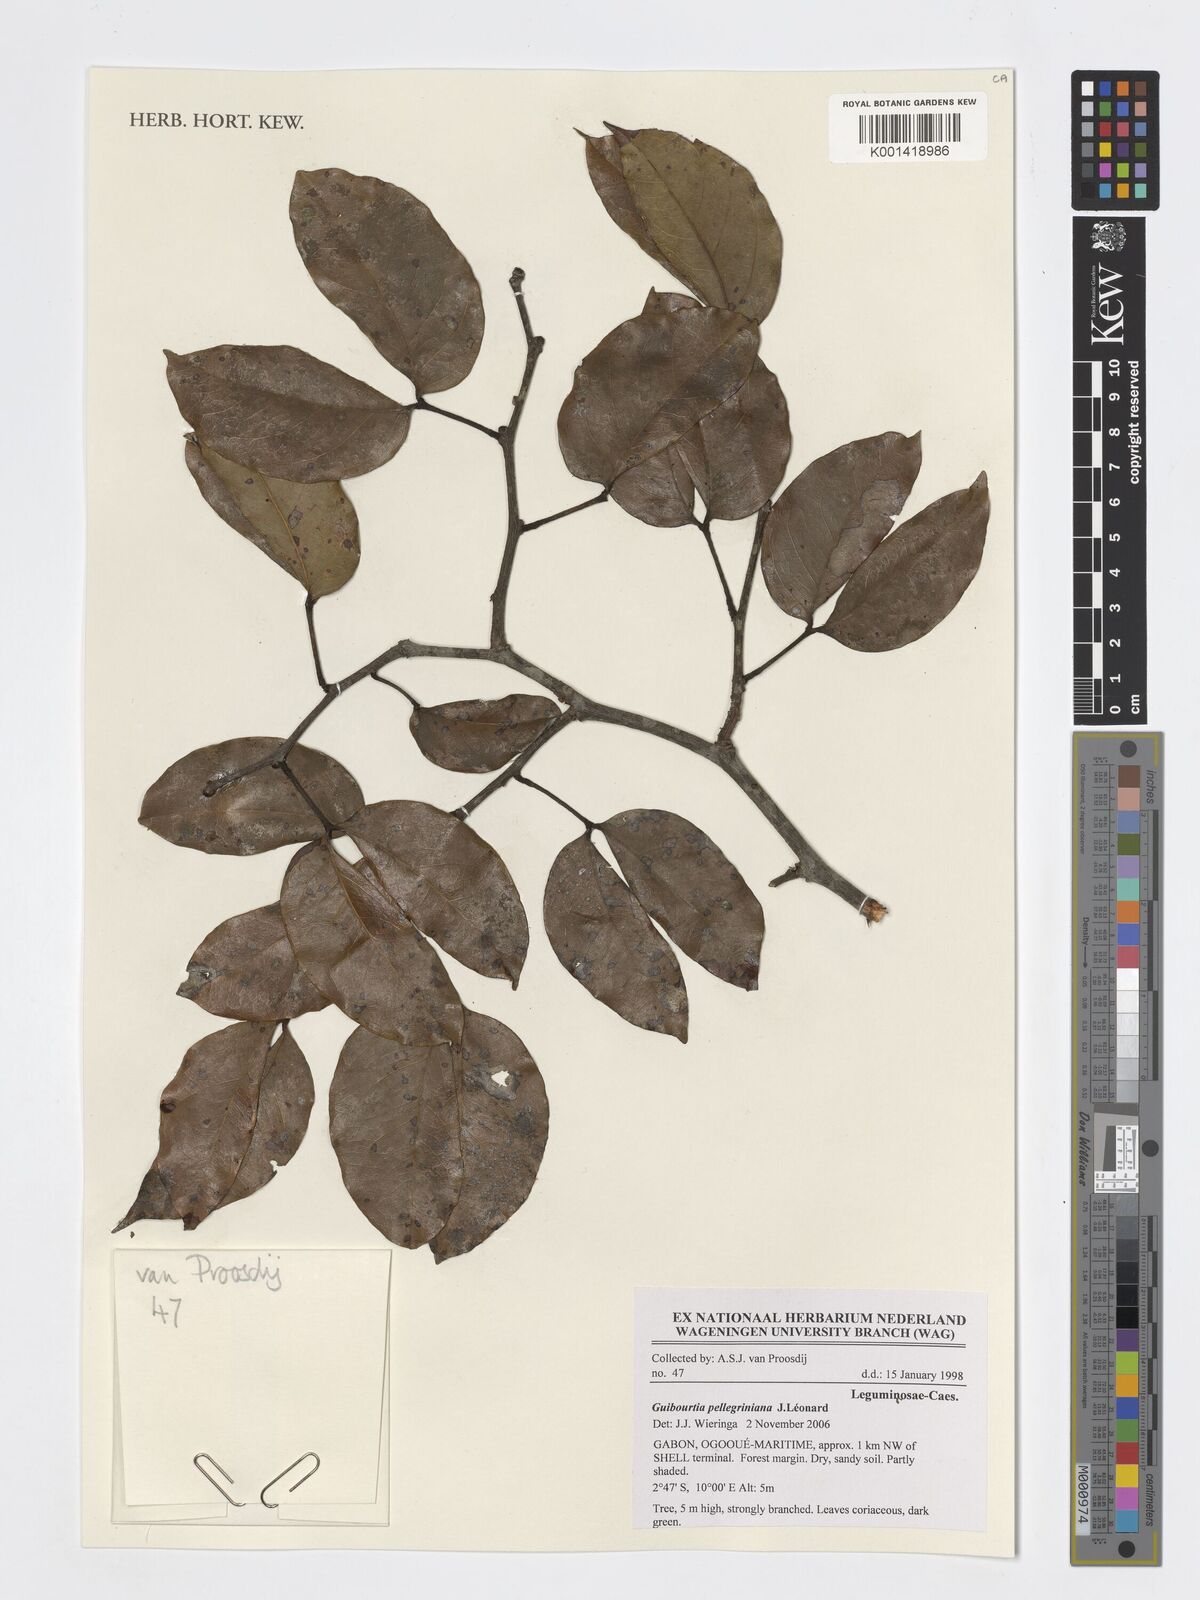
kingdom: Plantae
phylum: Tracheophyta
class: Magnoliopsida
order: Fabales
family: Fabaceae
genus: Guibourtia
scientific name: Guibourtia pellegriniana
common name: Akume
